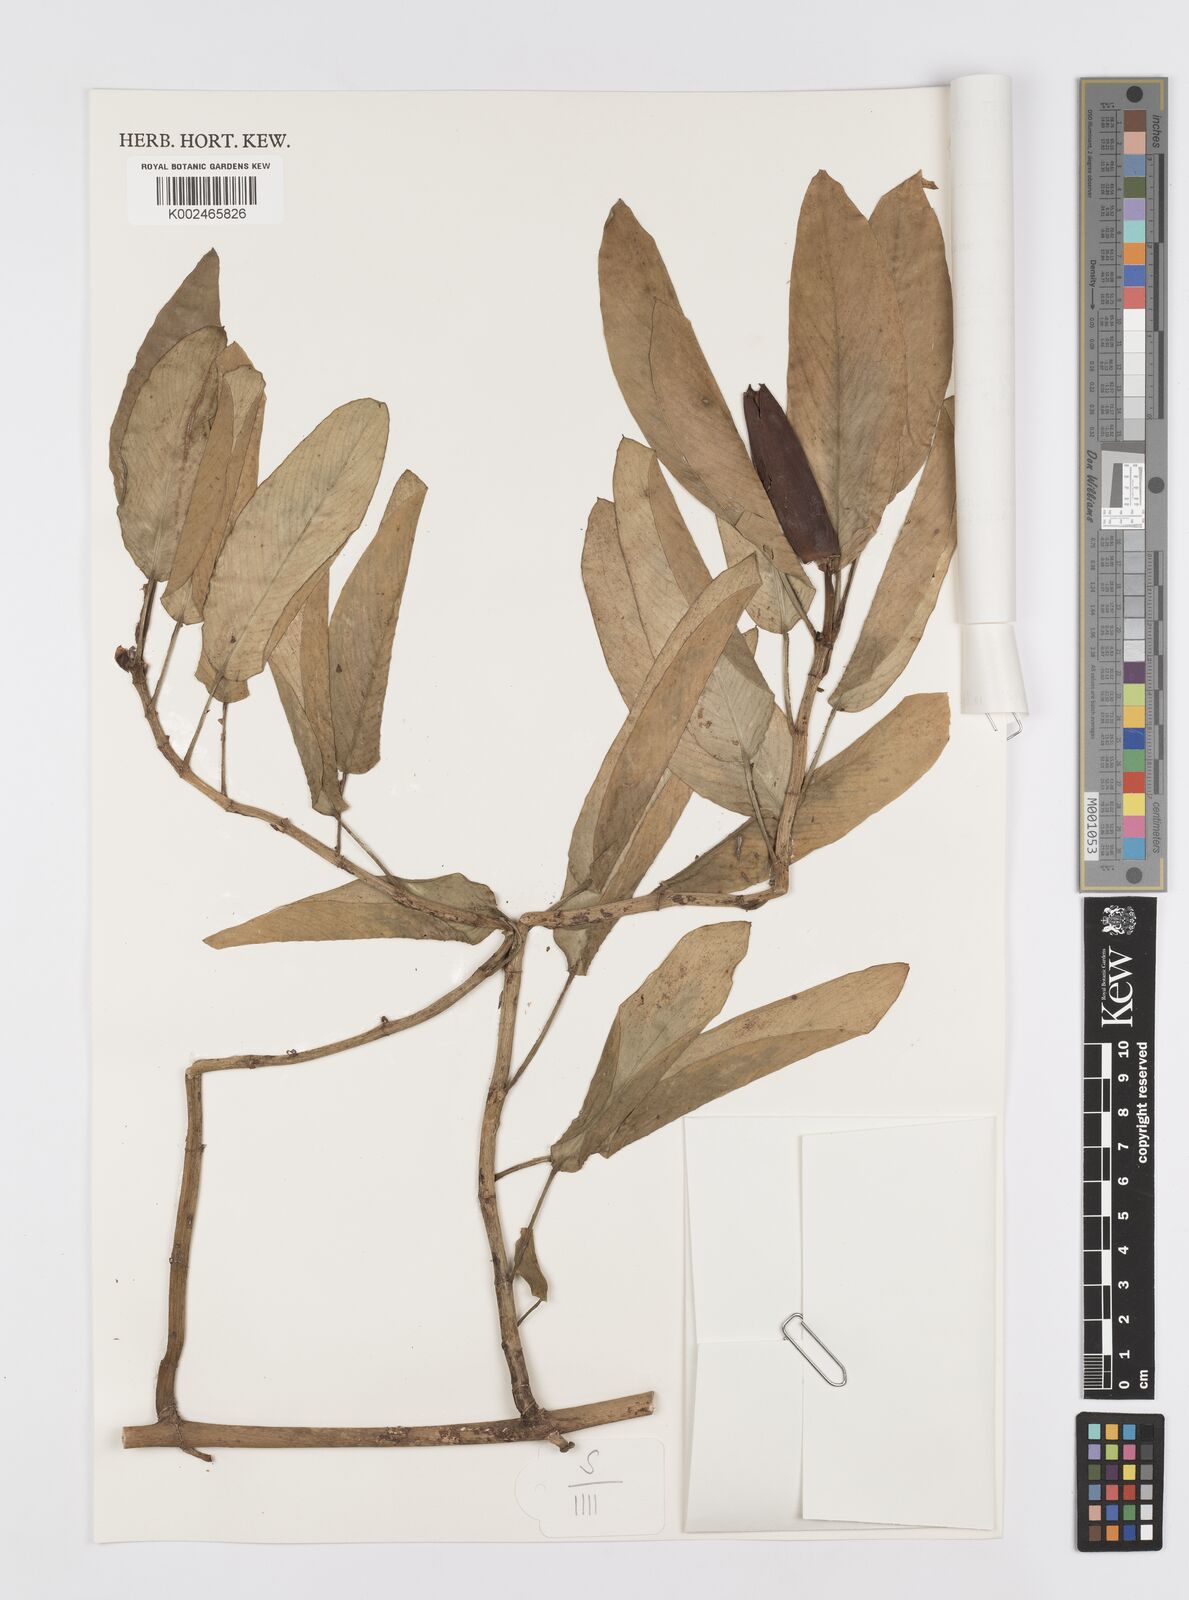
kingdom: Plantae
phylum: Tracheophyta
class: Liliopsida
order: Alismatales
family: Araceae
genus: Rhaphidophora
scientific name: Rhaphidophora minor
